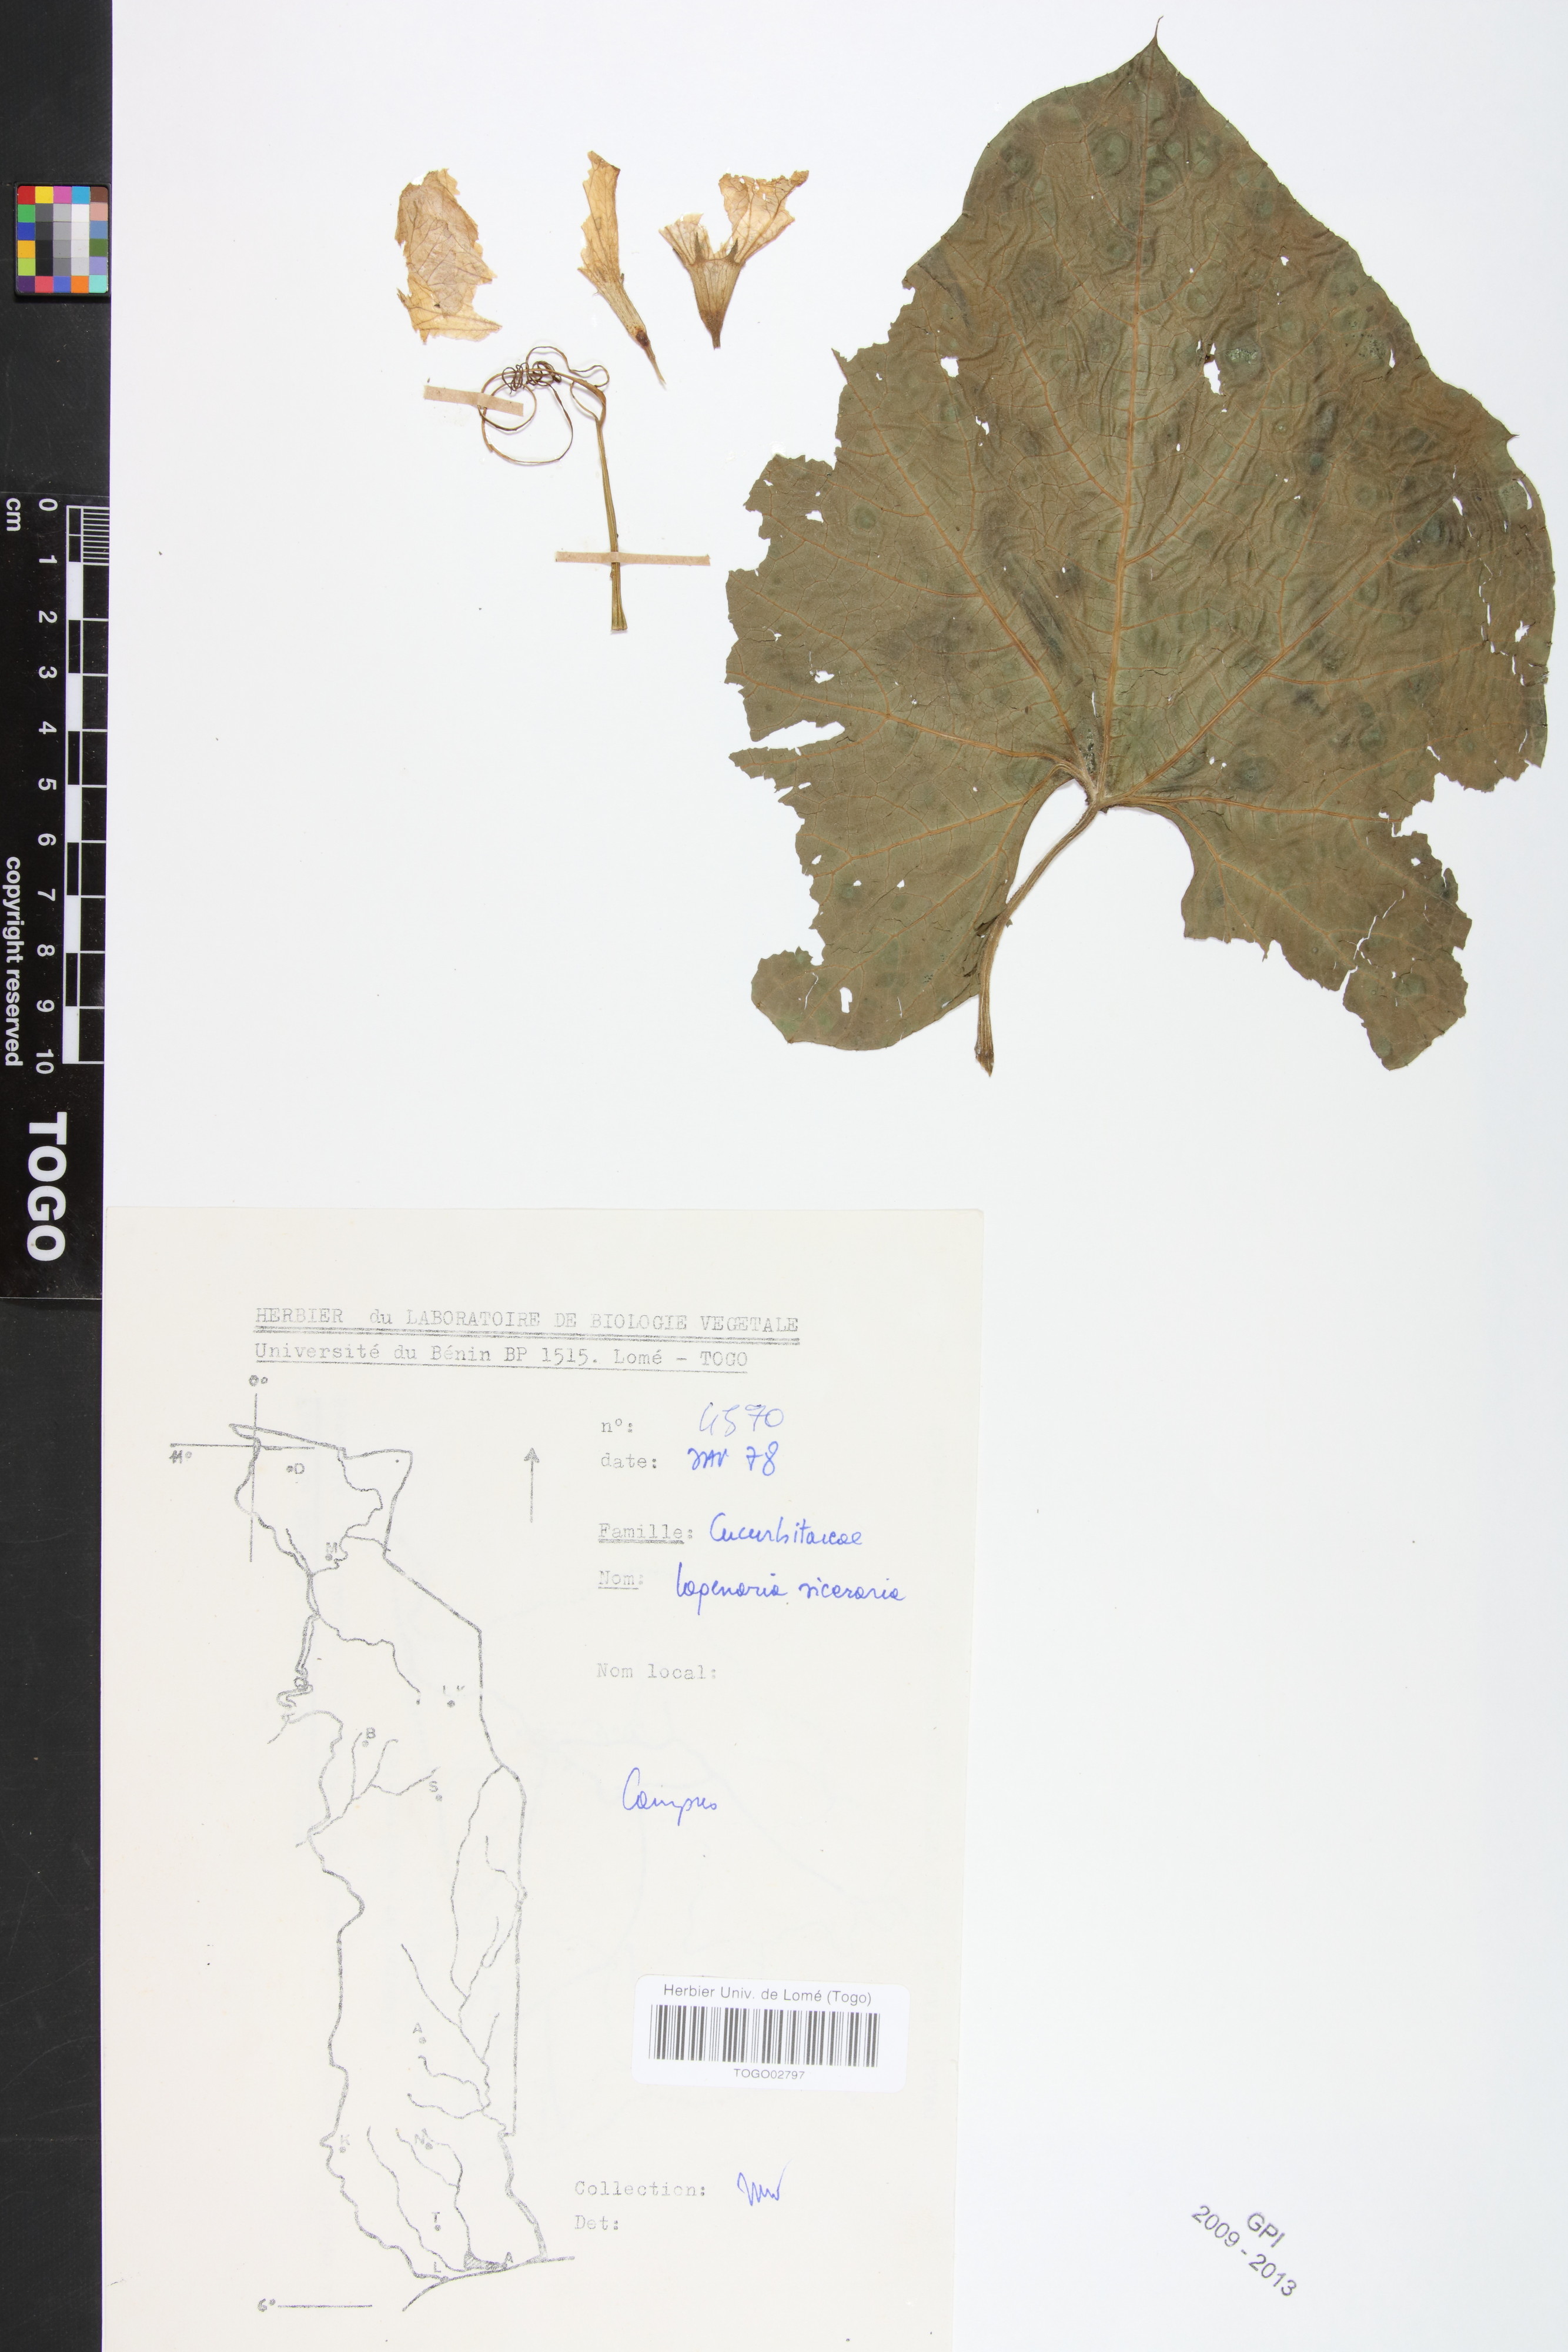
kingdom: Plantae
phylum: Tracheophyta
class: Magnoliopsida
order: Cucurbitales
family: Cucurbitaceae
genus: Kedrostis
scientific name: Kedrostis foetidissima
